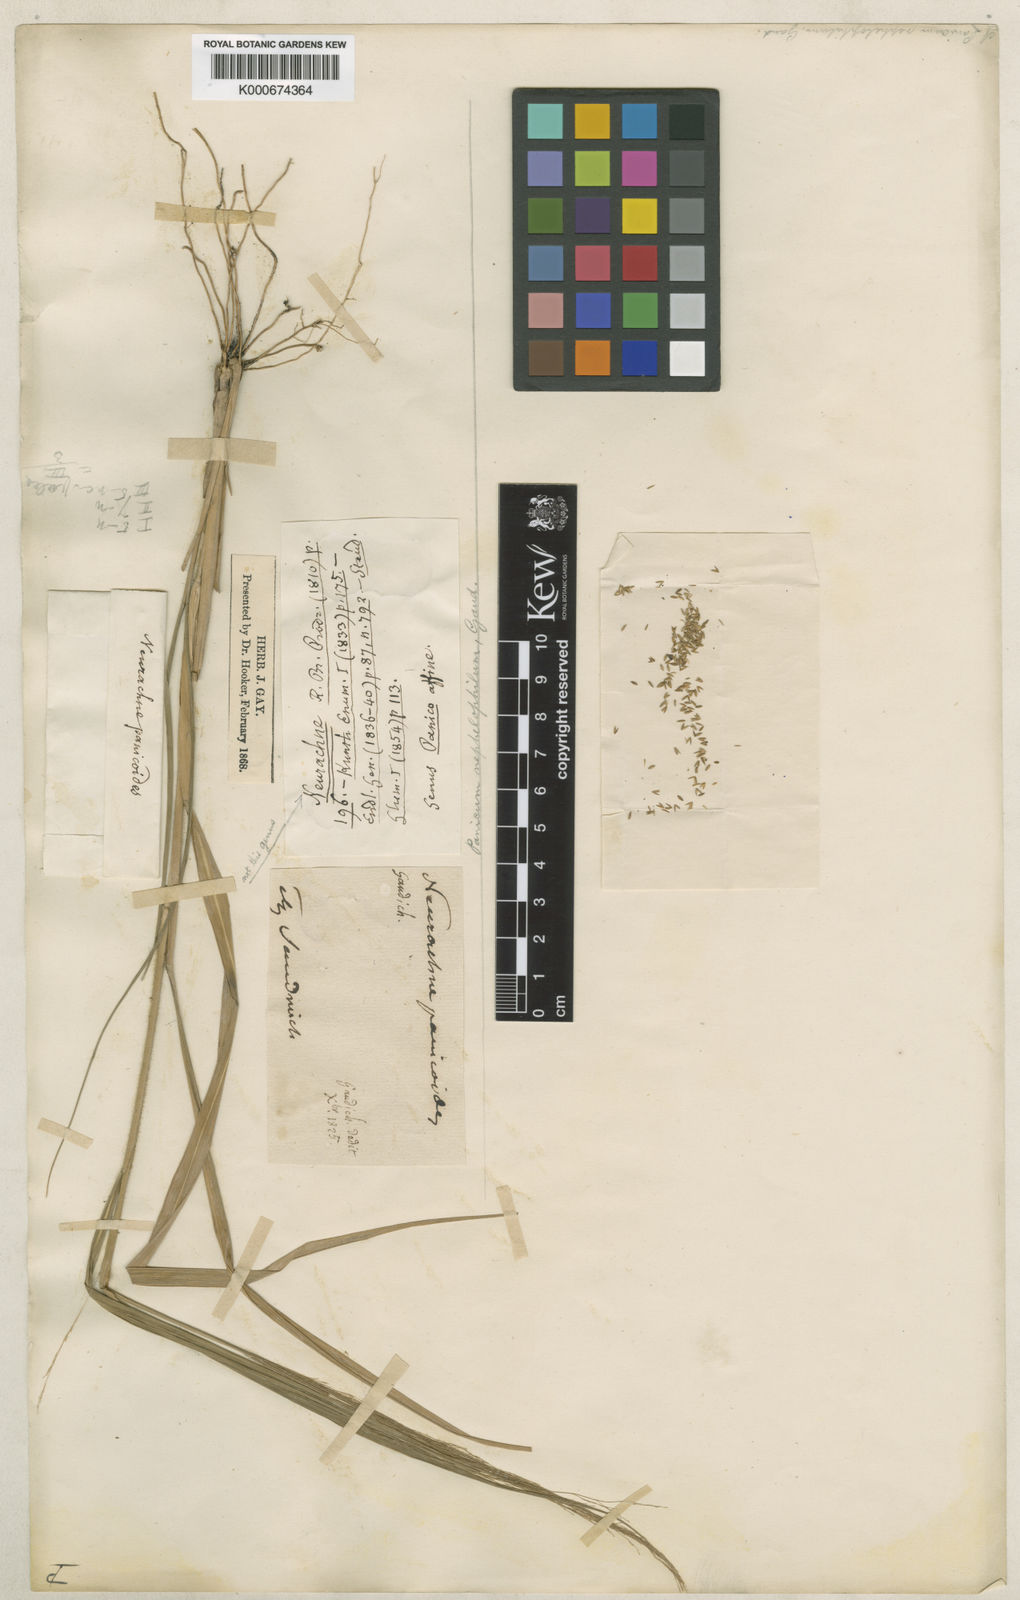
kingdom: Plantae
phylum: Tracheophyta
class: Liliopsida
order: Poales
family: Poaceae
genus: Panicum
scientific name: Panicum nephelophilum
